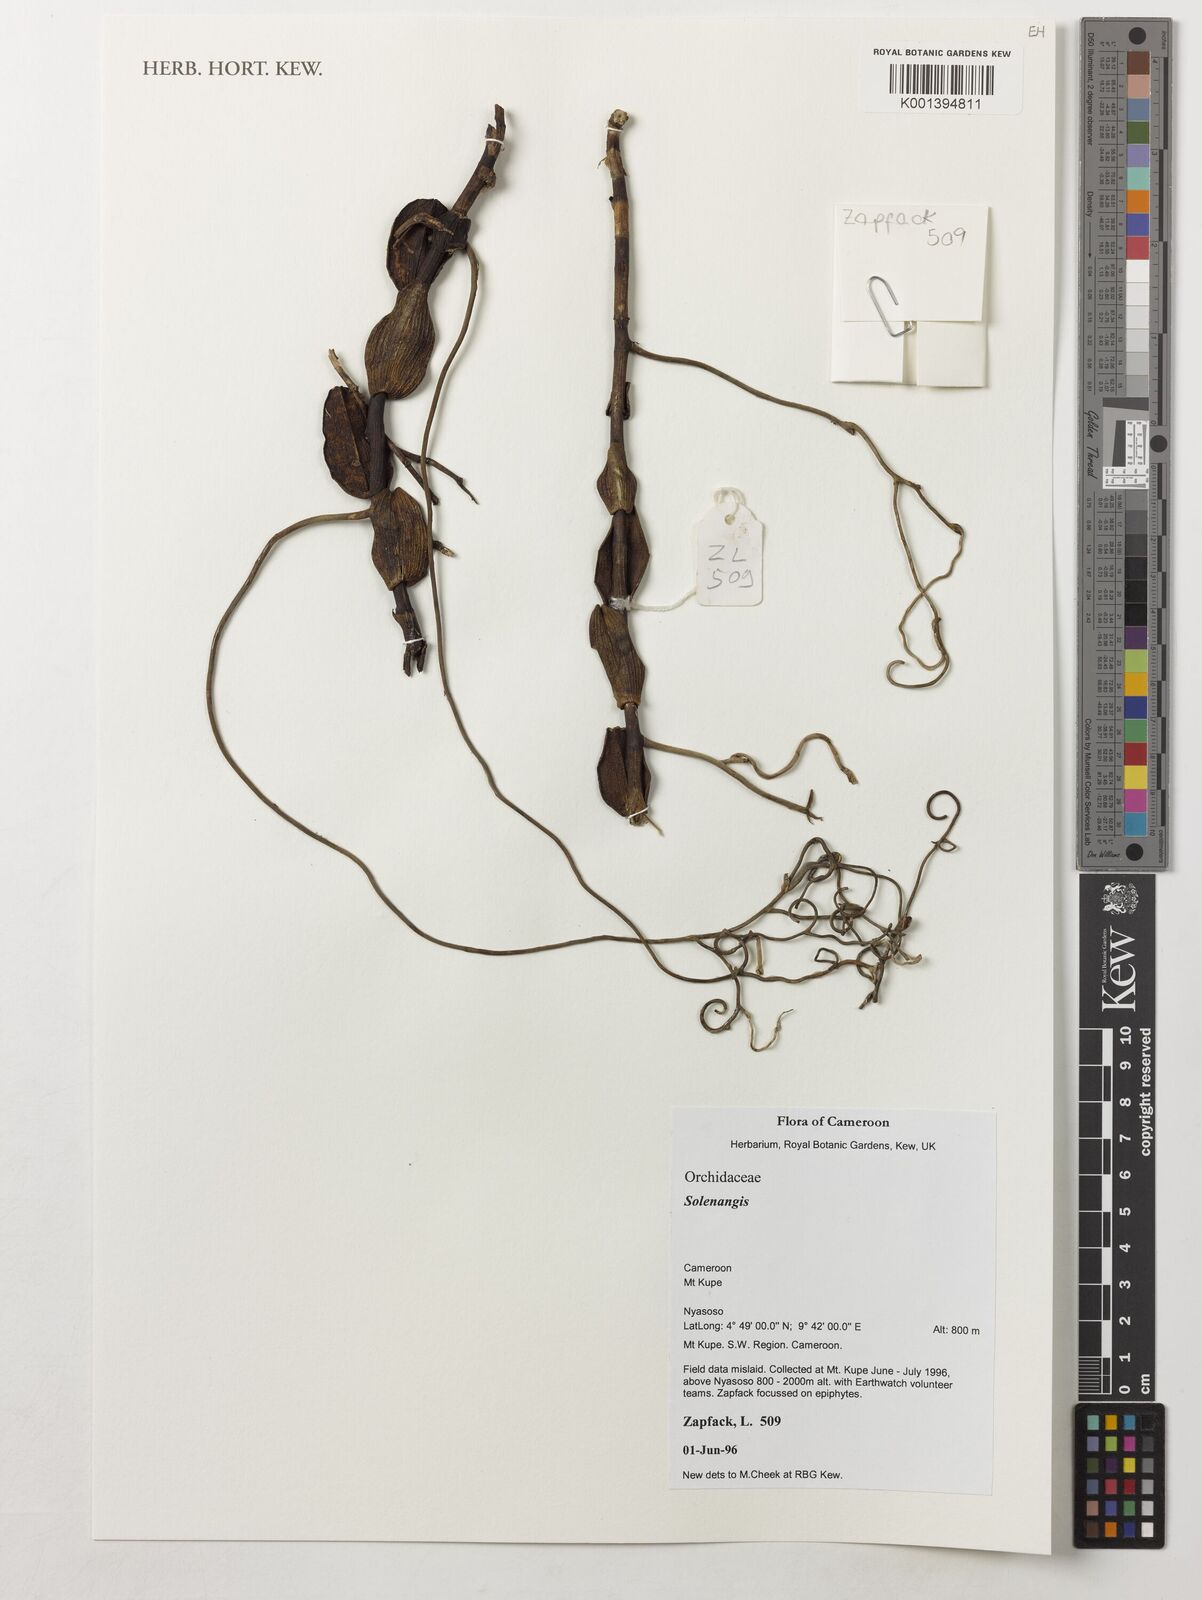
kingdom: Plantae
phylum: Tracheophyta
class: Liliopsida
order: Asparagales
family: Orchidaceae
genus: Solenangis
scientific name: Solenangis
